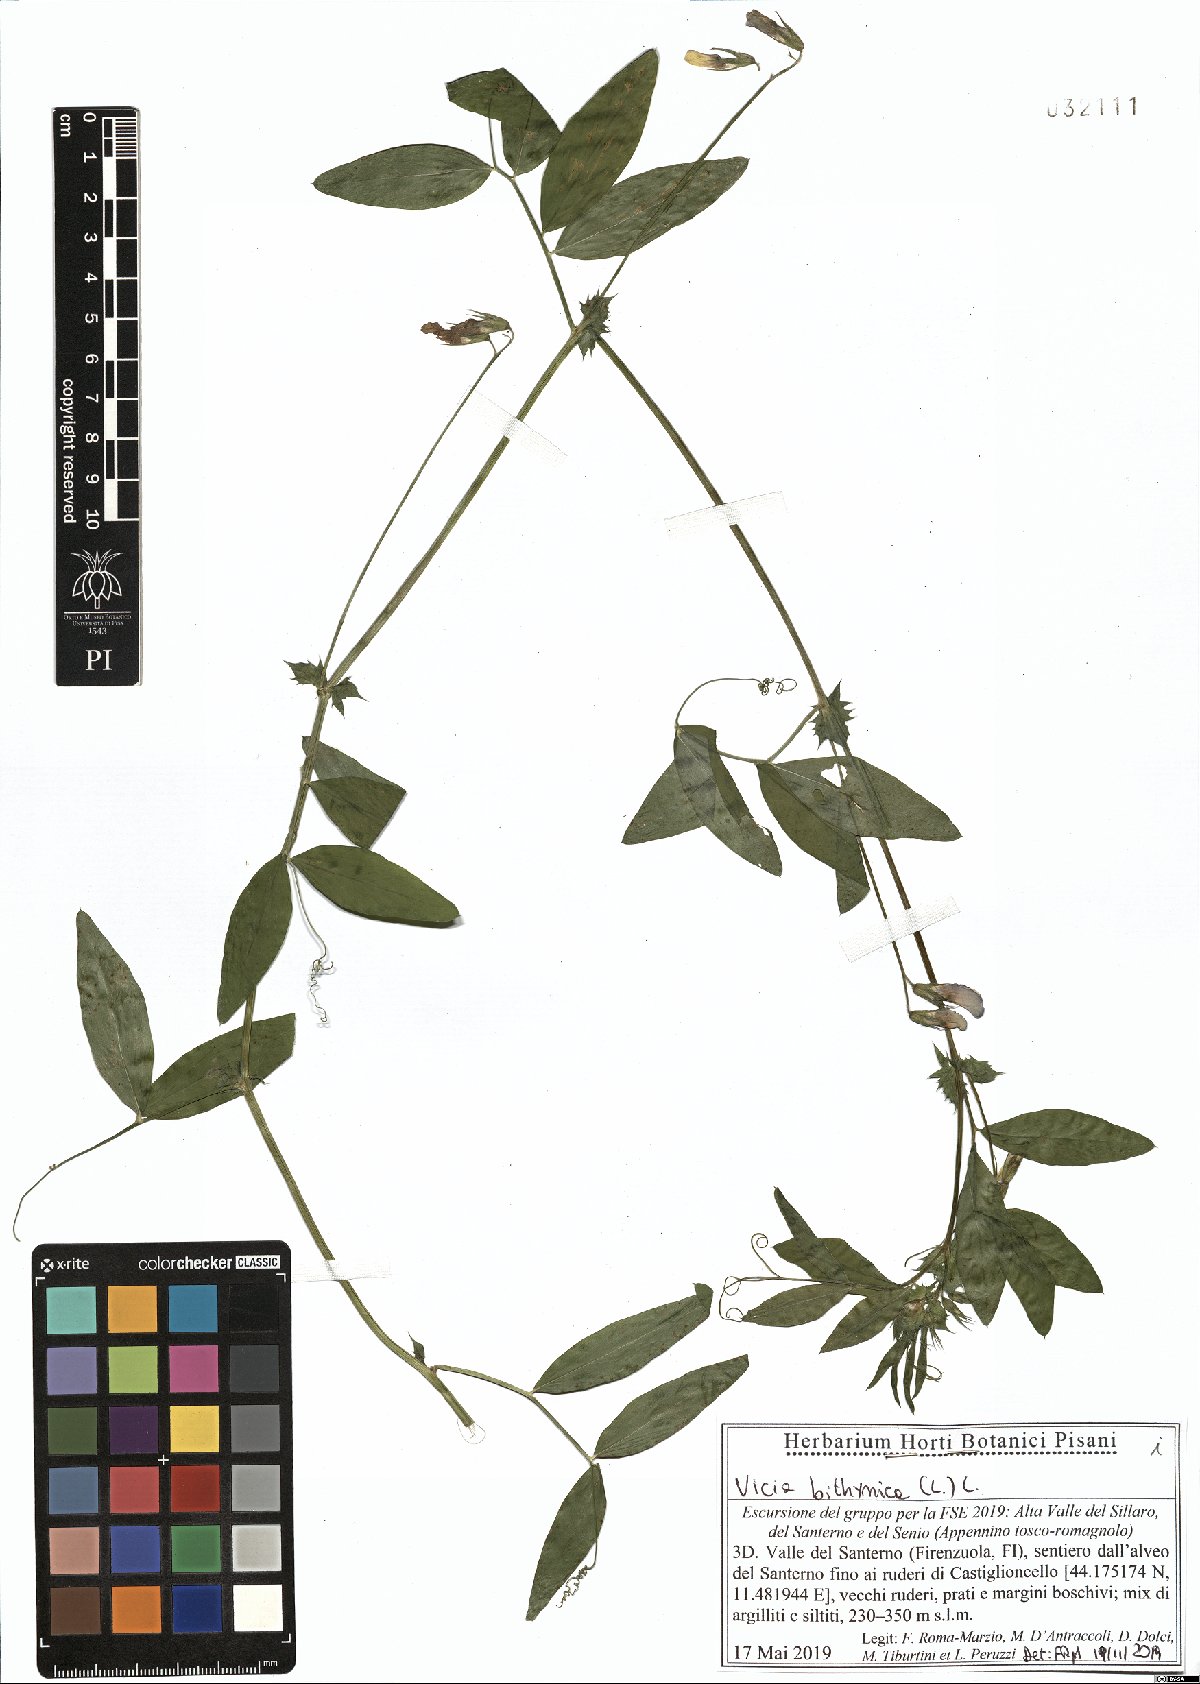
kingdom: Plantae
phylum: Tracheophyta
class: Magnoliopsida
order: Fabales
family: Fabaceae
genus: Vicia
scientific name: Vicia bithynica
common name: Bithynian vetch
